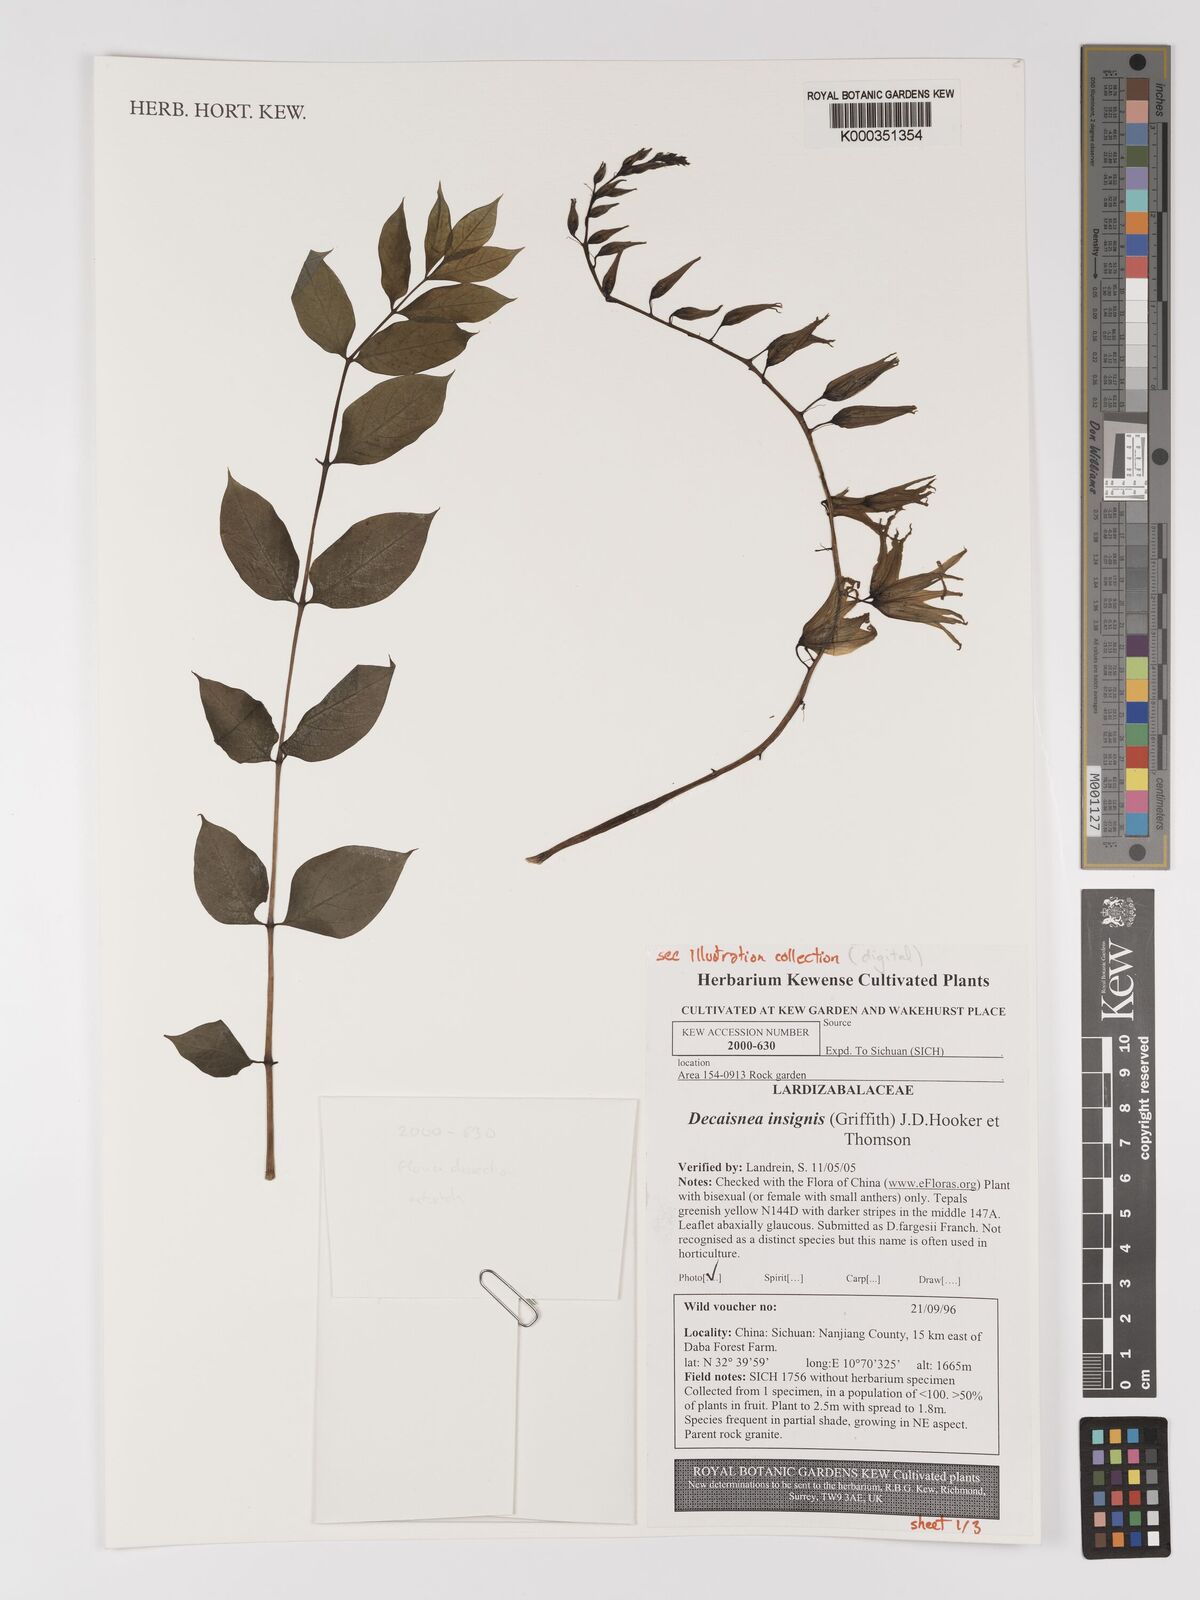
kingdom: Plantae
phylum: Tracheophyta
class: Magnoliopsida
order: Ranunculales
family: Lardizabalaceae
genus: Decaisnea
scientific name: Decaisnea insignis
